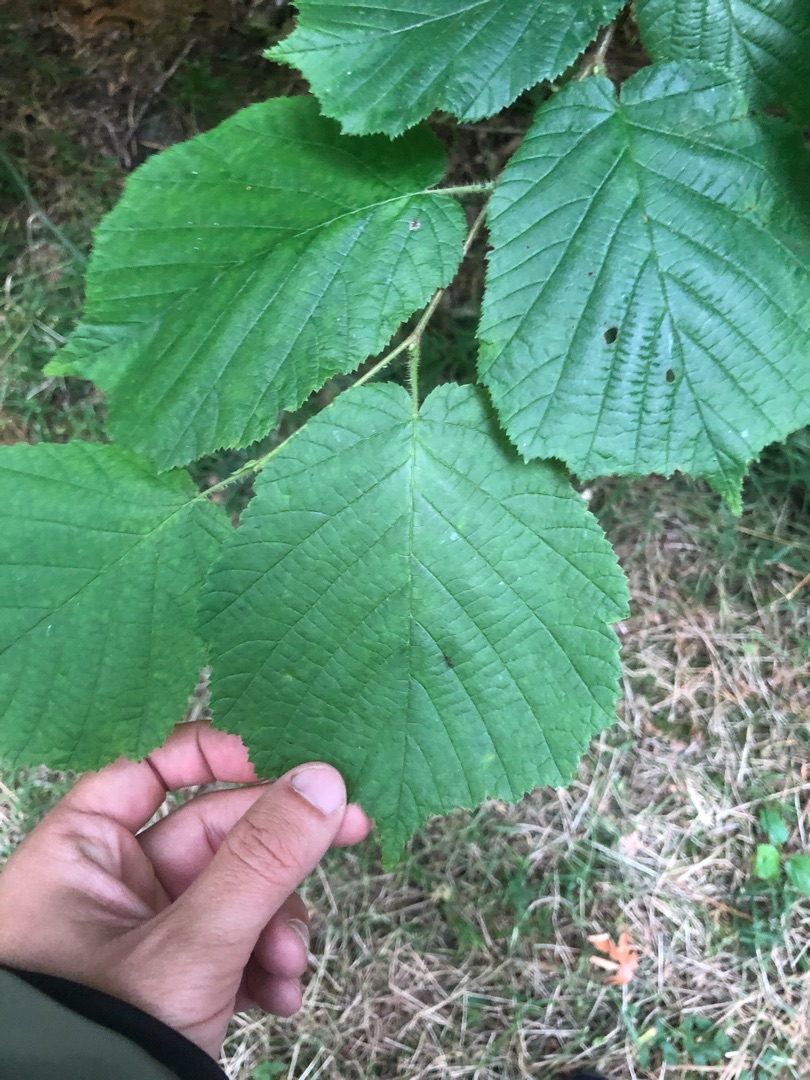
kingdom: Plantae
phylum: Tracheophyta
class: Magnoliopsida
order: Fagales
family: Betulaceae
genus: Corylus
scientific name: Corylus avellana
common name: Hassel
